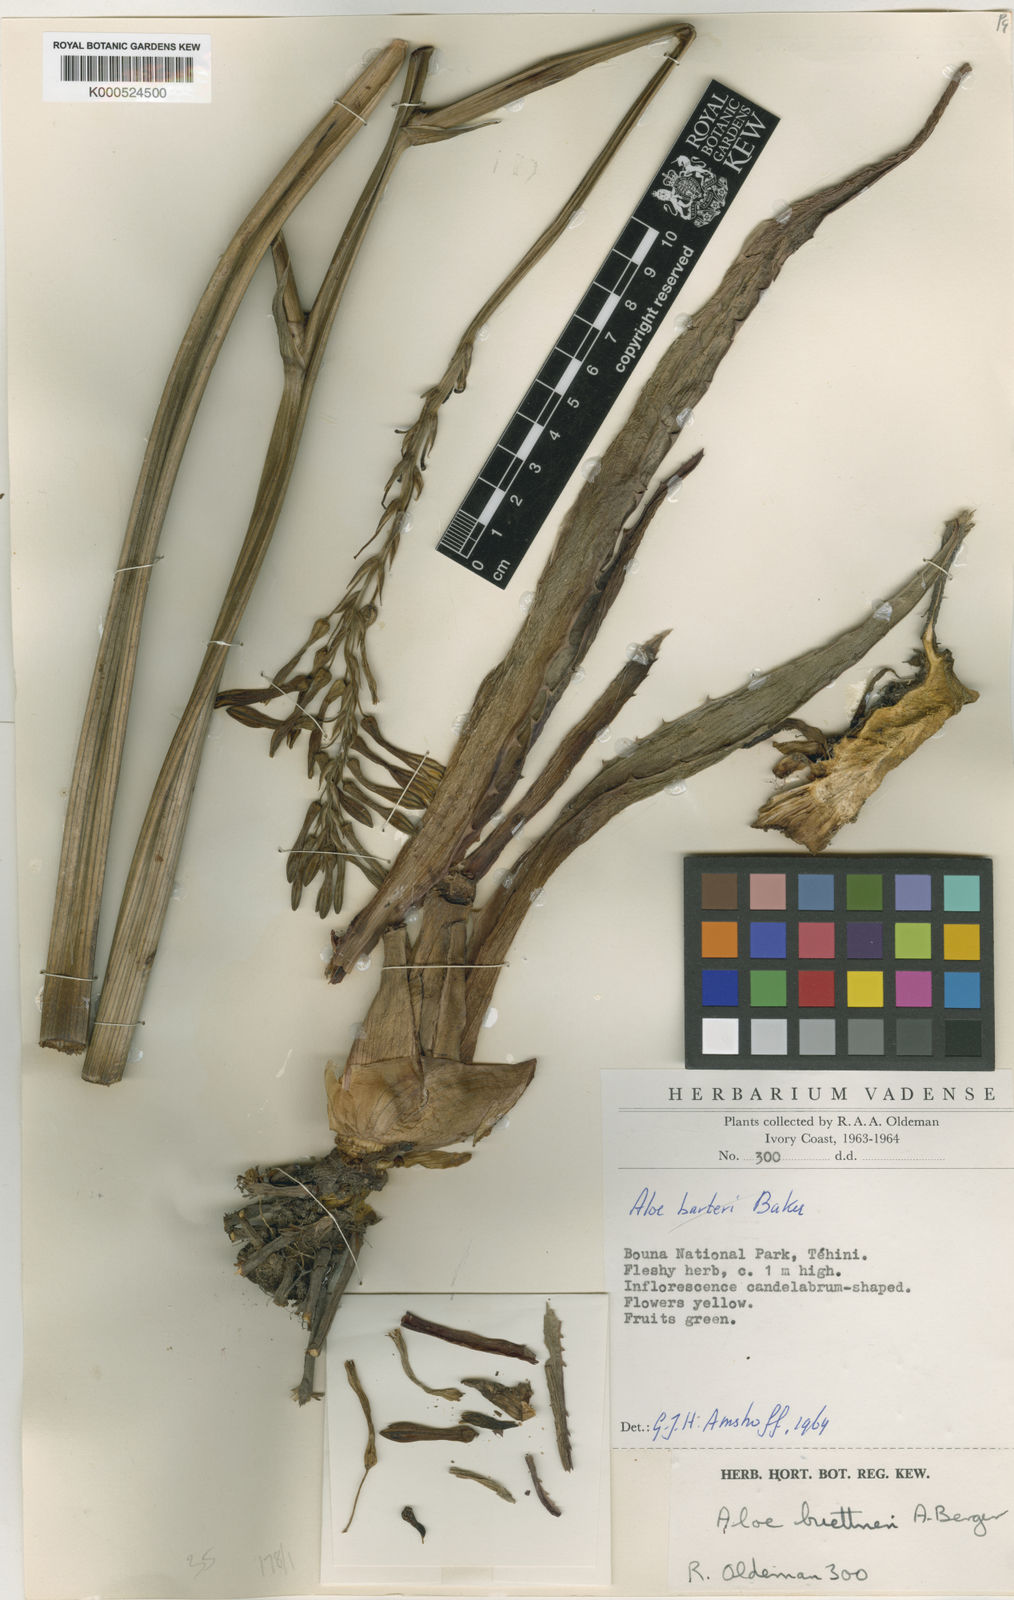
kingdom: Plantae
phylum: Tracheophyta
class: Liliopsida
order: Asparagales
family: Asphodelaceae
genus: Aloe
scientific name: Aloe buettneri
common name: West african aloe
